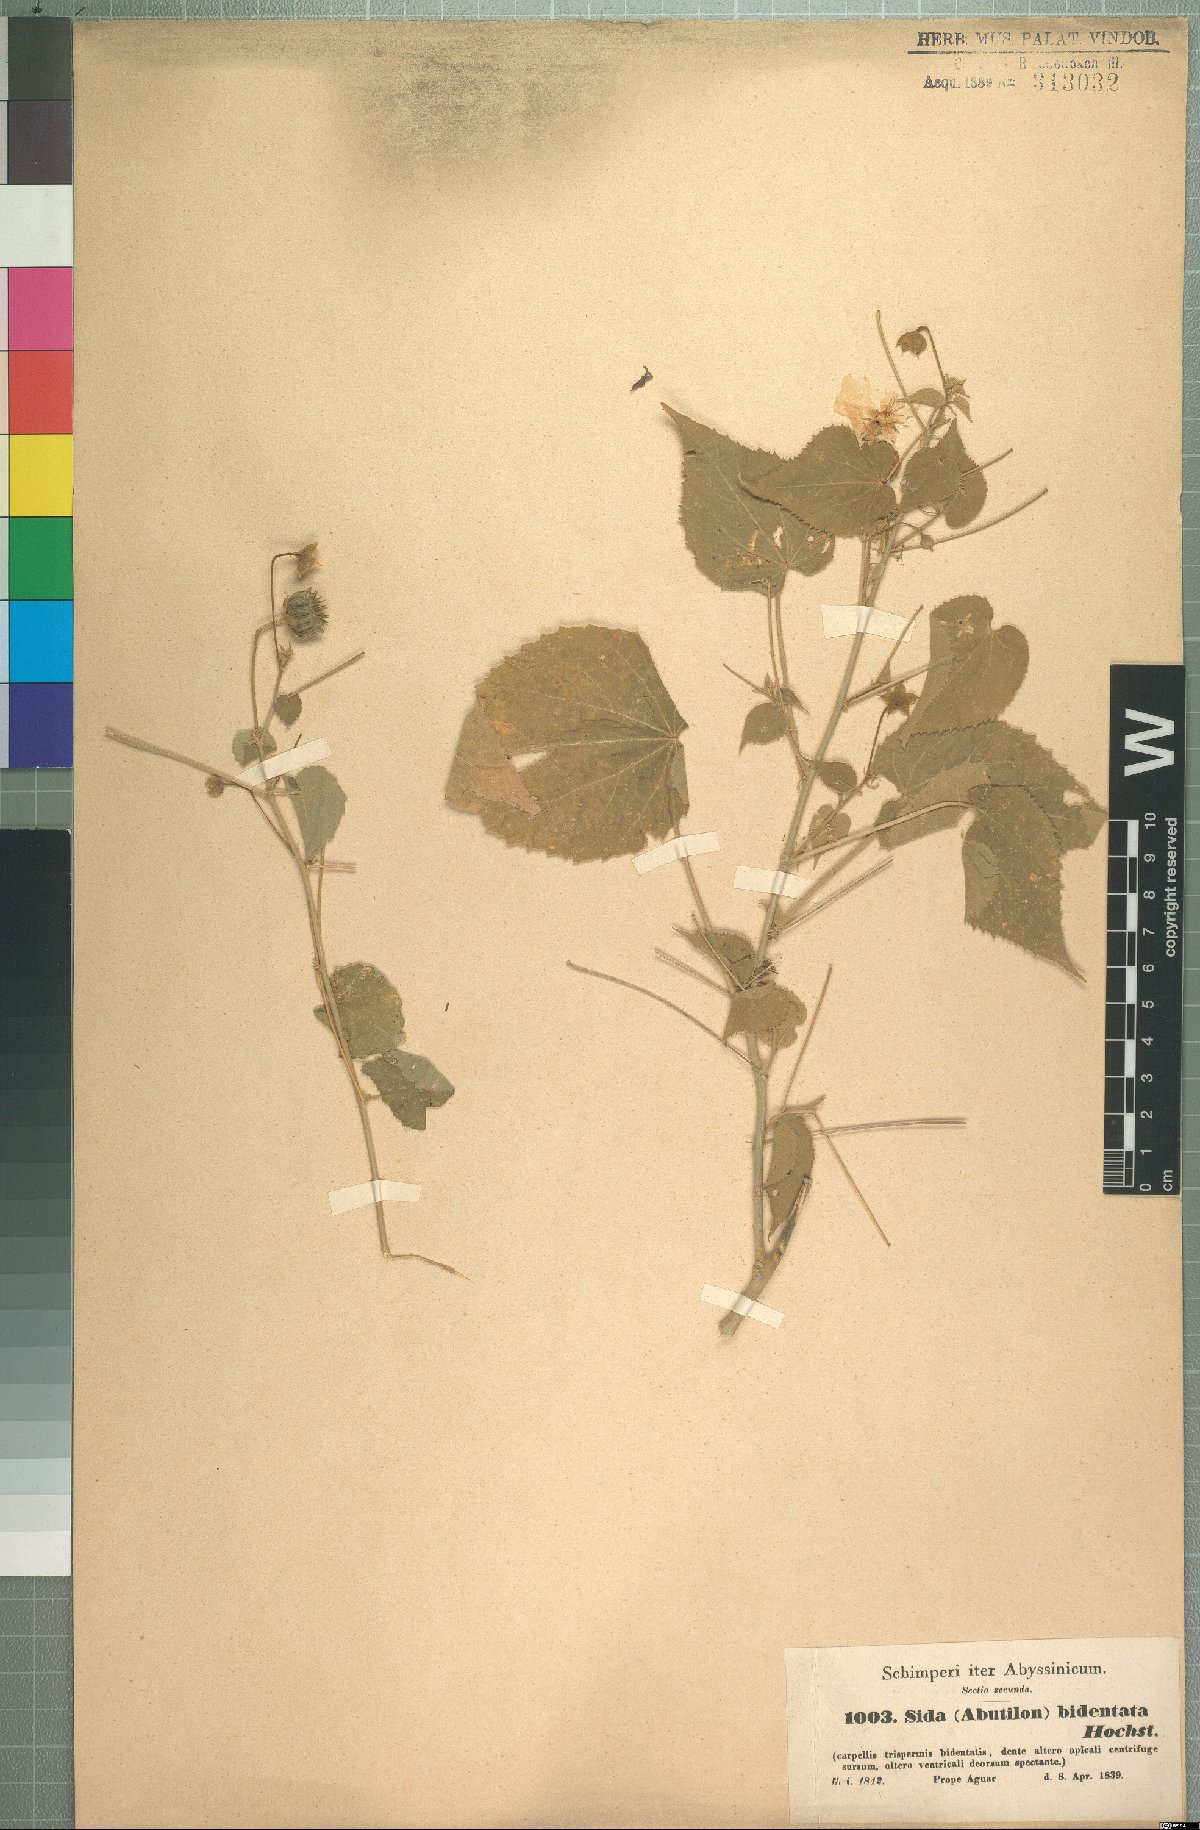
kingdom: Plantae
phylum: Tracheophyta
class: Magnoliopsida
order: Malvales
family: Malvaceae
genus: Abutilon
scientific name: Abutilon bidentatum
